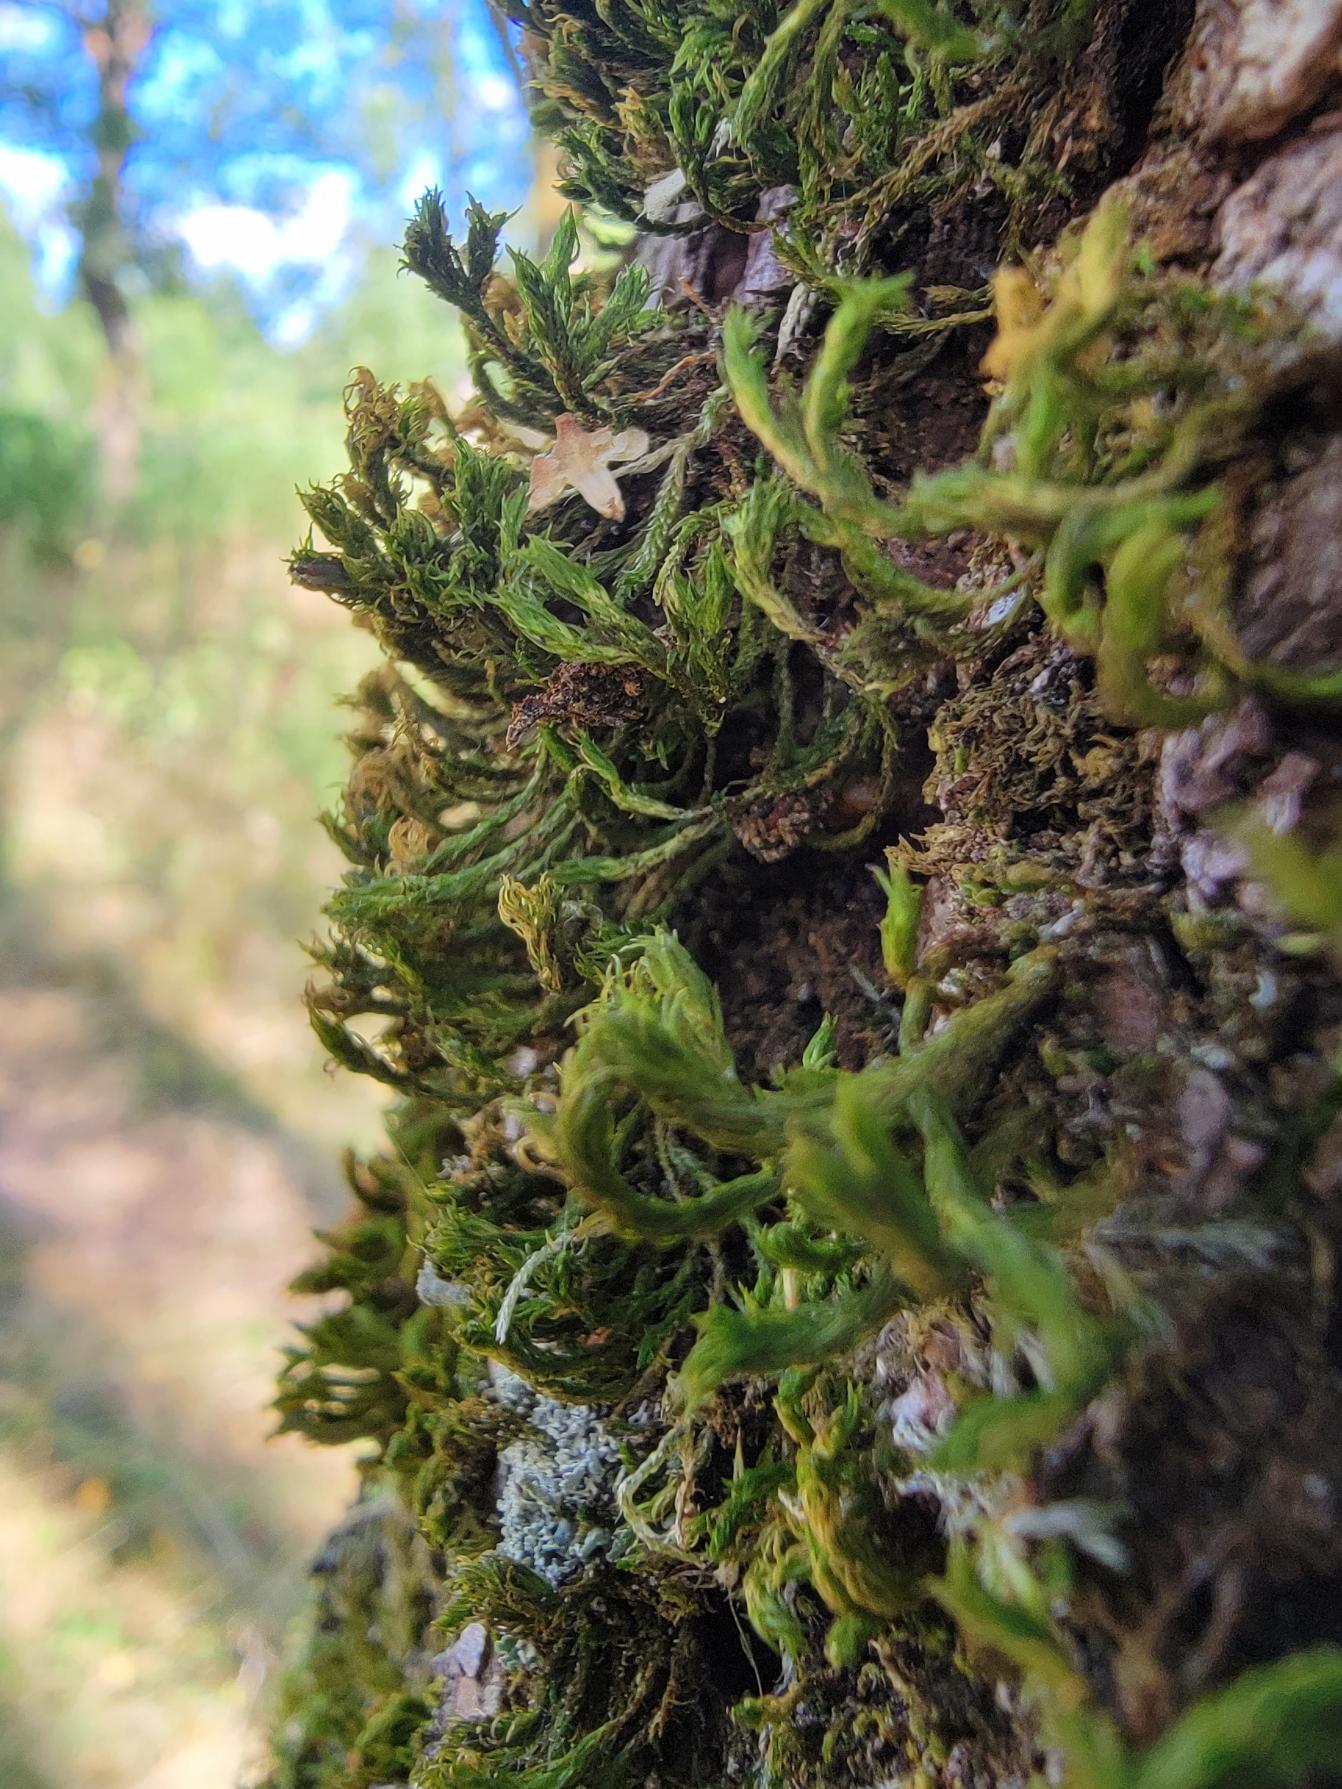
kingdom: Plantae
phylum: Bryophyta
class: Bryopsida
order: Orthotrichales
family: Orthotrichaceae
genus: Pulvigera
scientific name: Pulvigera lyellii
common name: Stor furehætte
